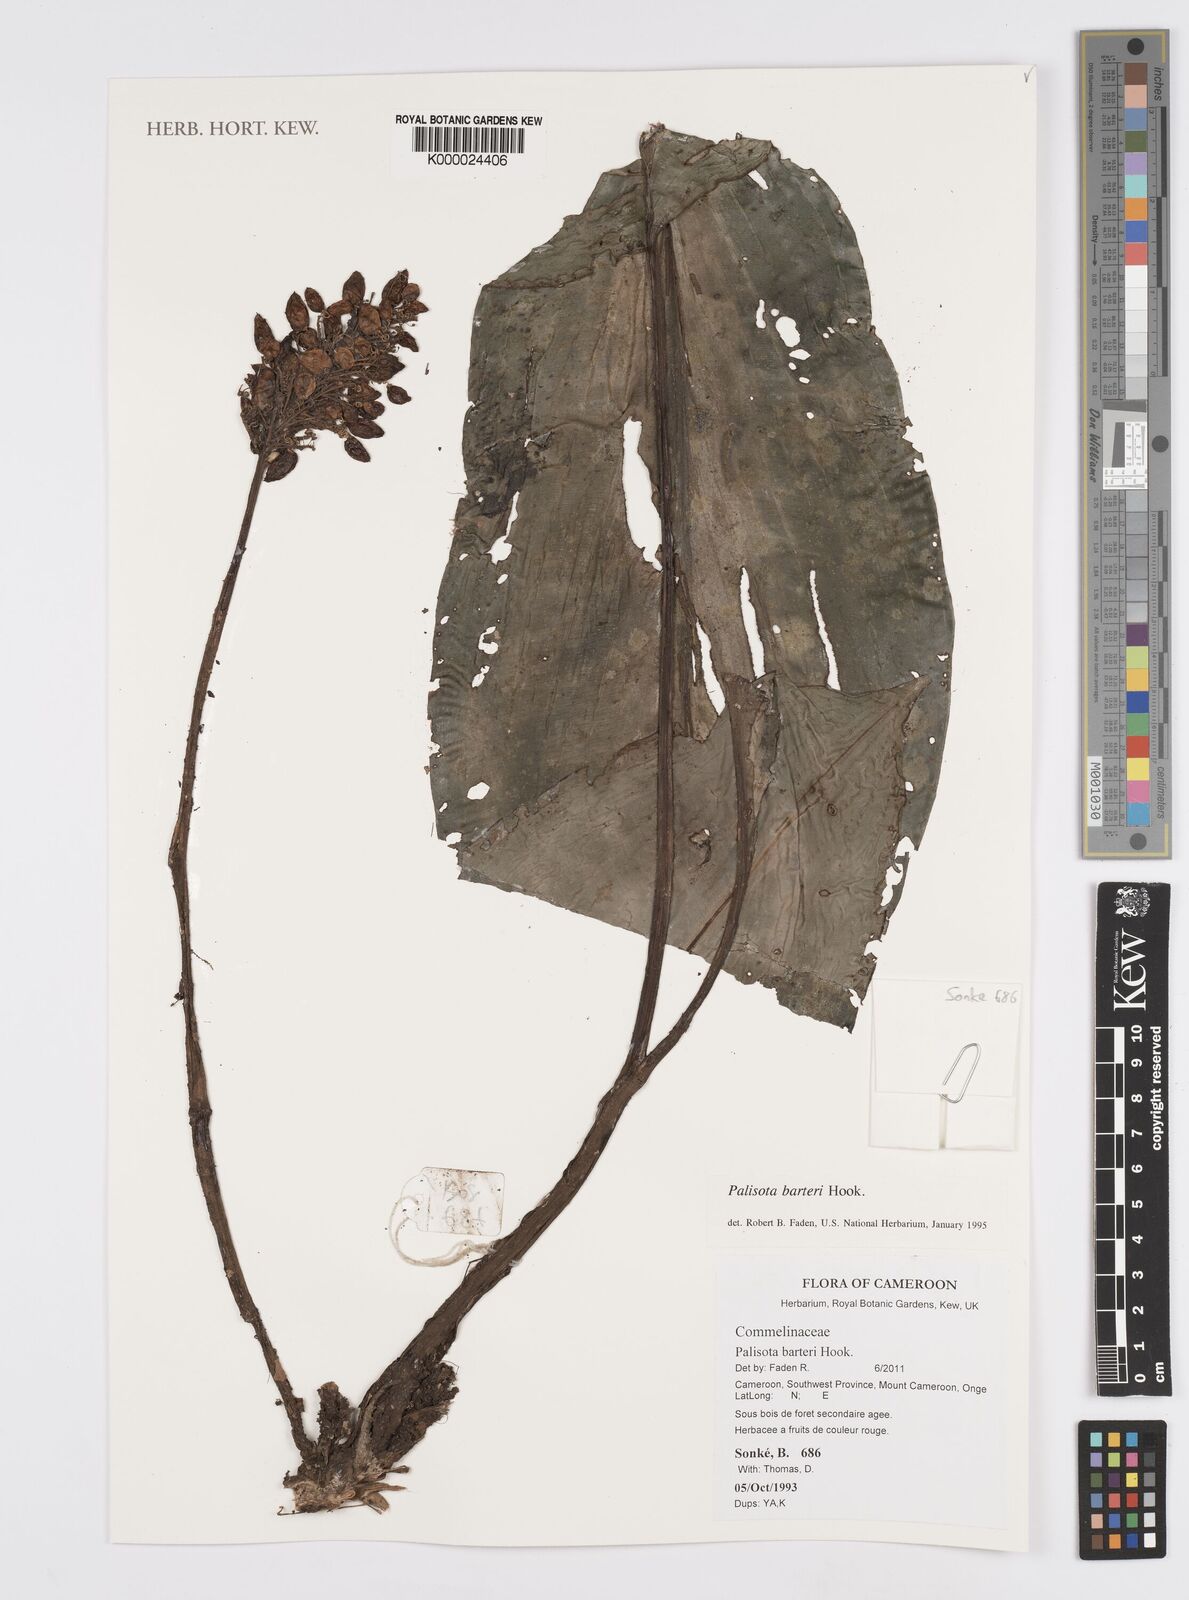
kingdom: Plantae
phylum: Tracheophyta
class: Liliopsida
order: Commelinales
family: Commelinaceae
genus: Palisota
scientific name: Palisota barteri
